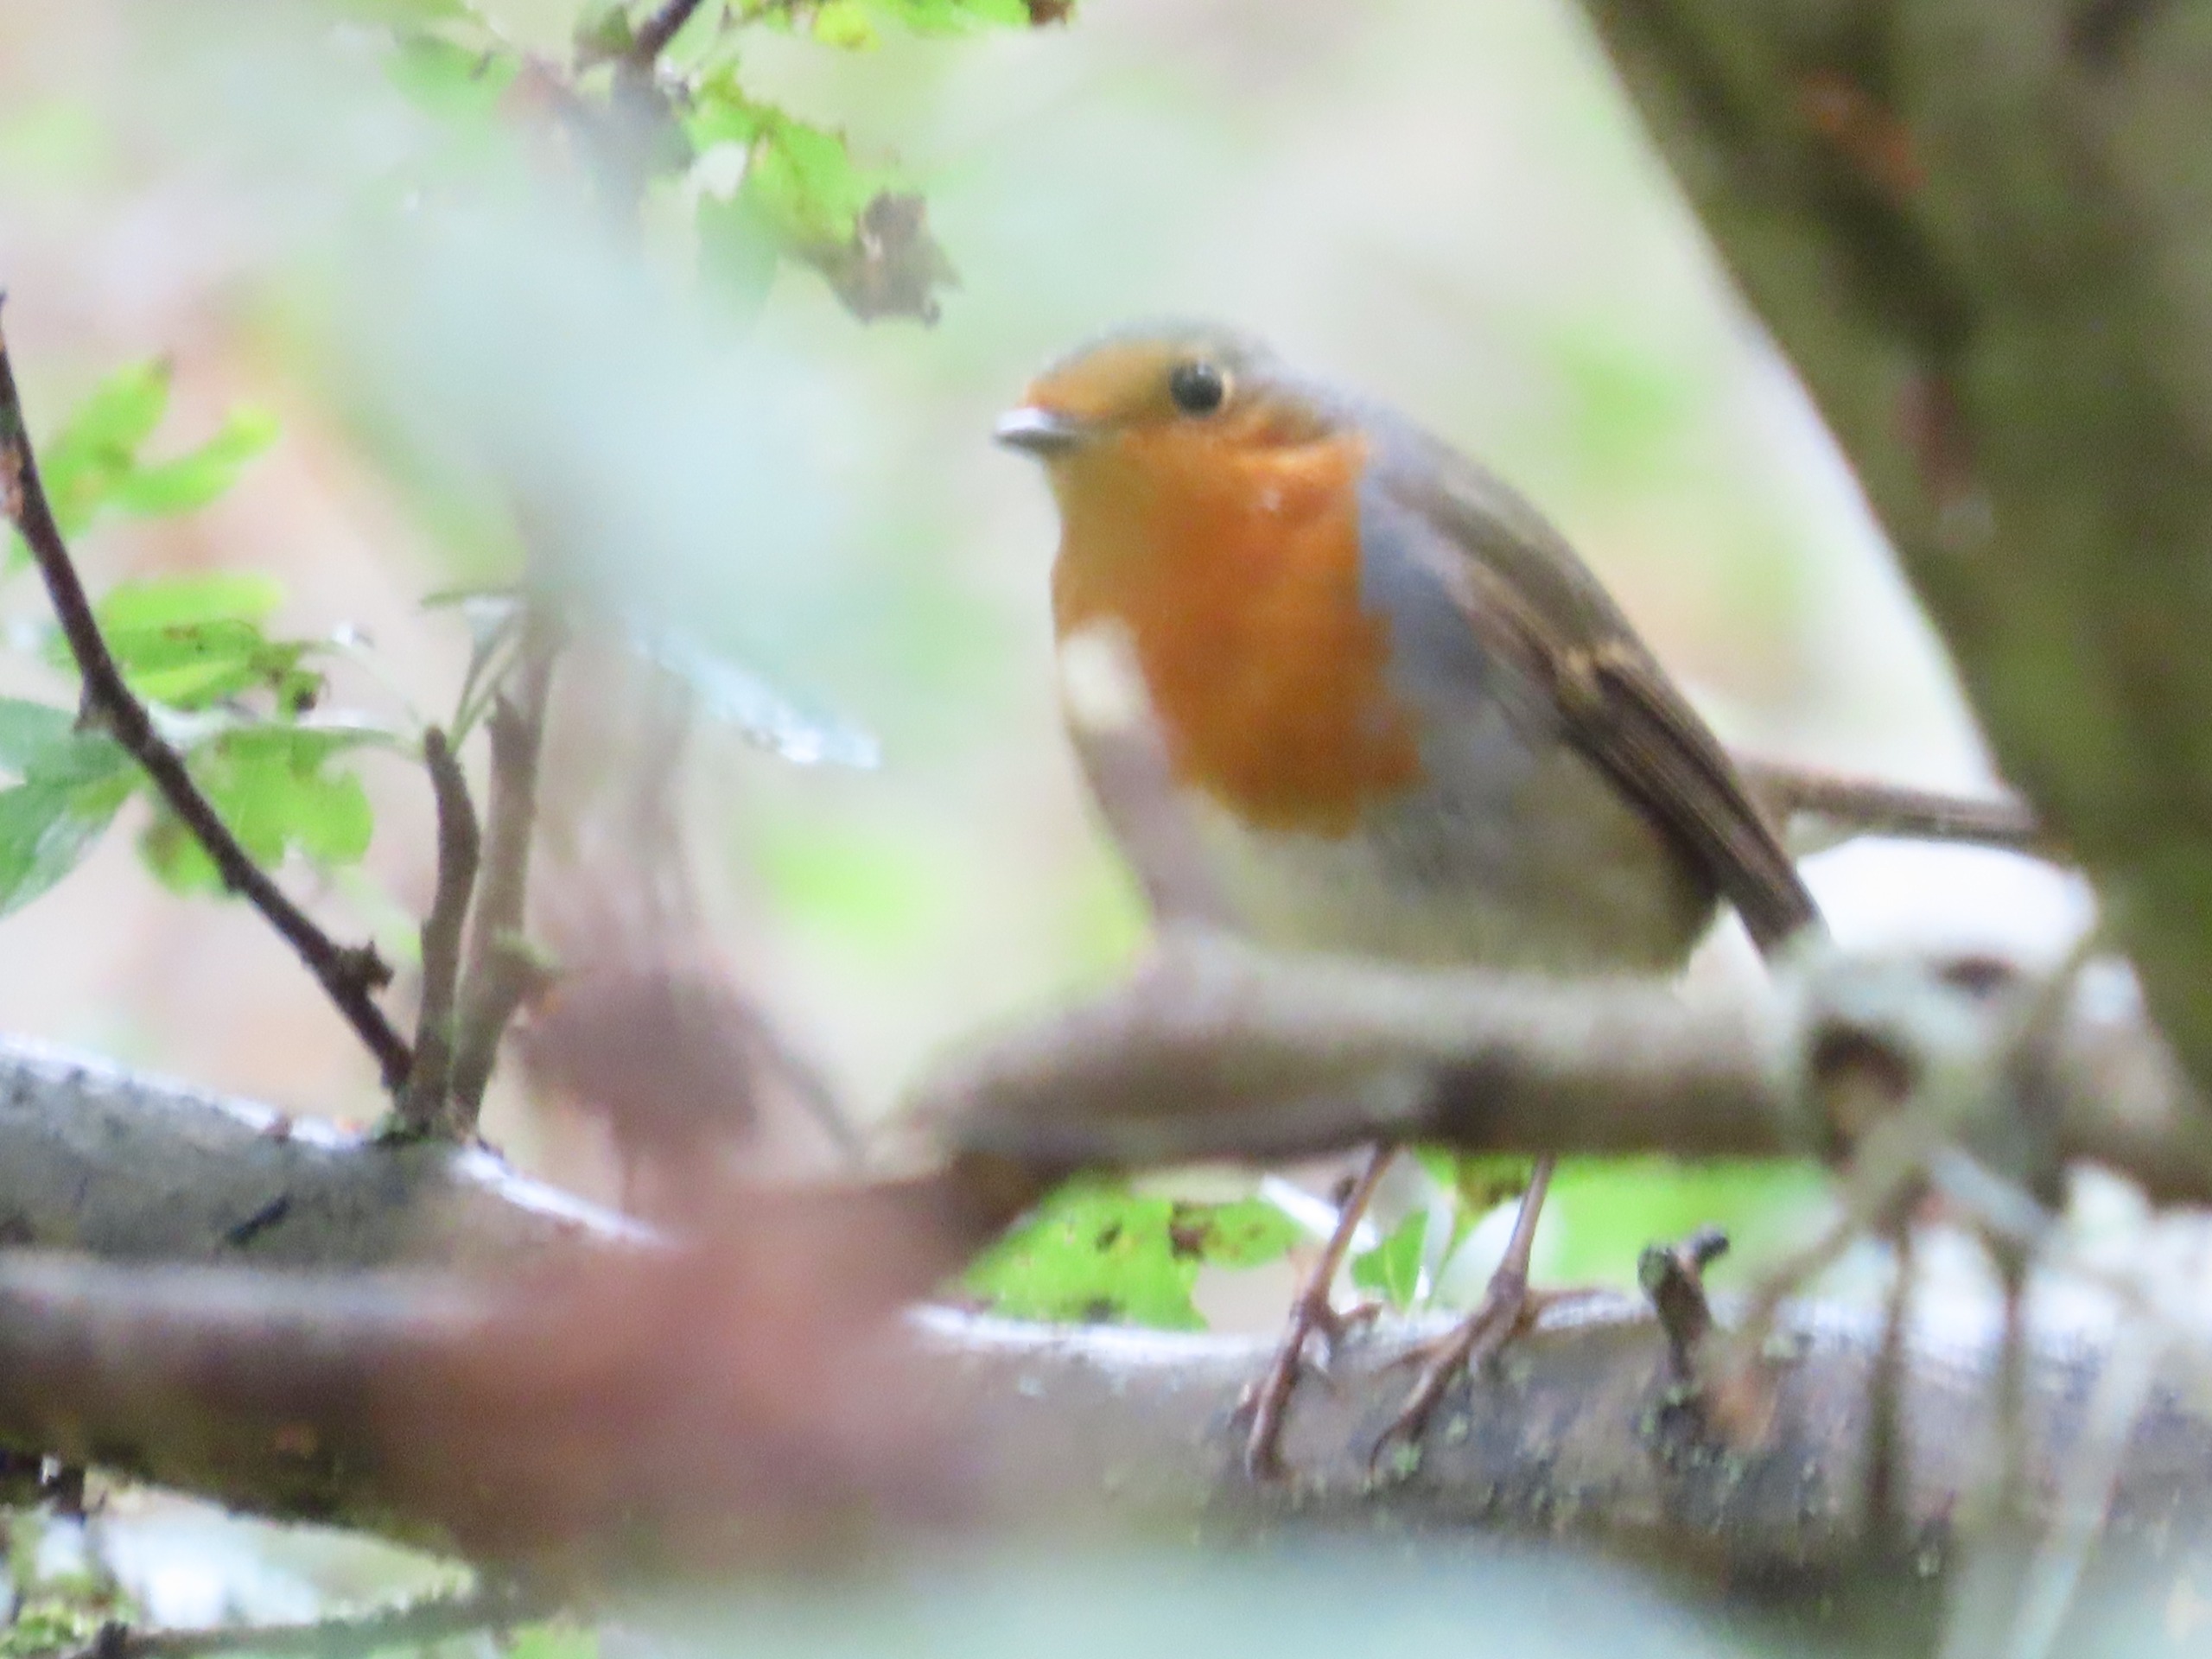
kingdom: Animalia
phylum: Chordata
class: Aves
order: Passeriformes
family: Muscicapidae
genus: Erithacus
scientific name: Erithacus rubecula
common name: Rødhals/rødkælk
